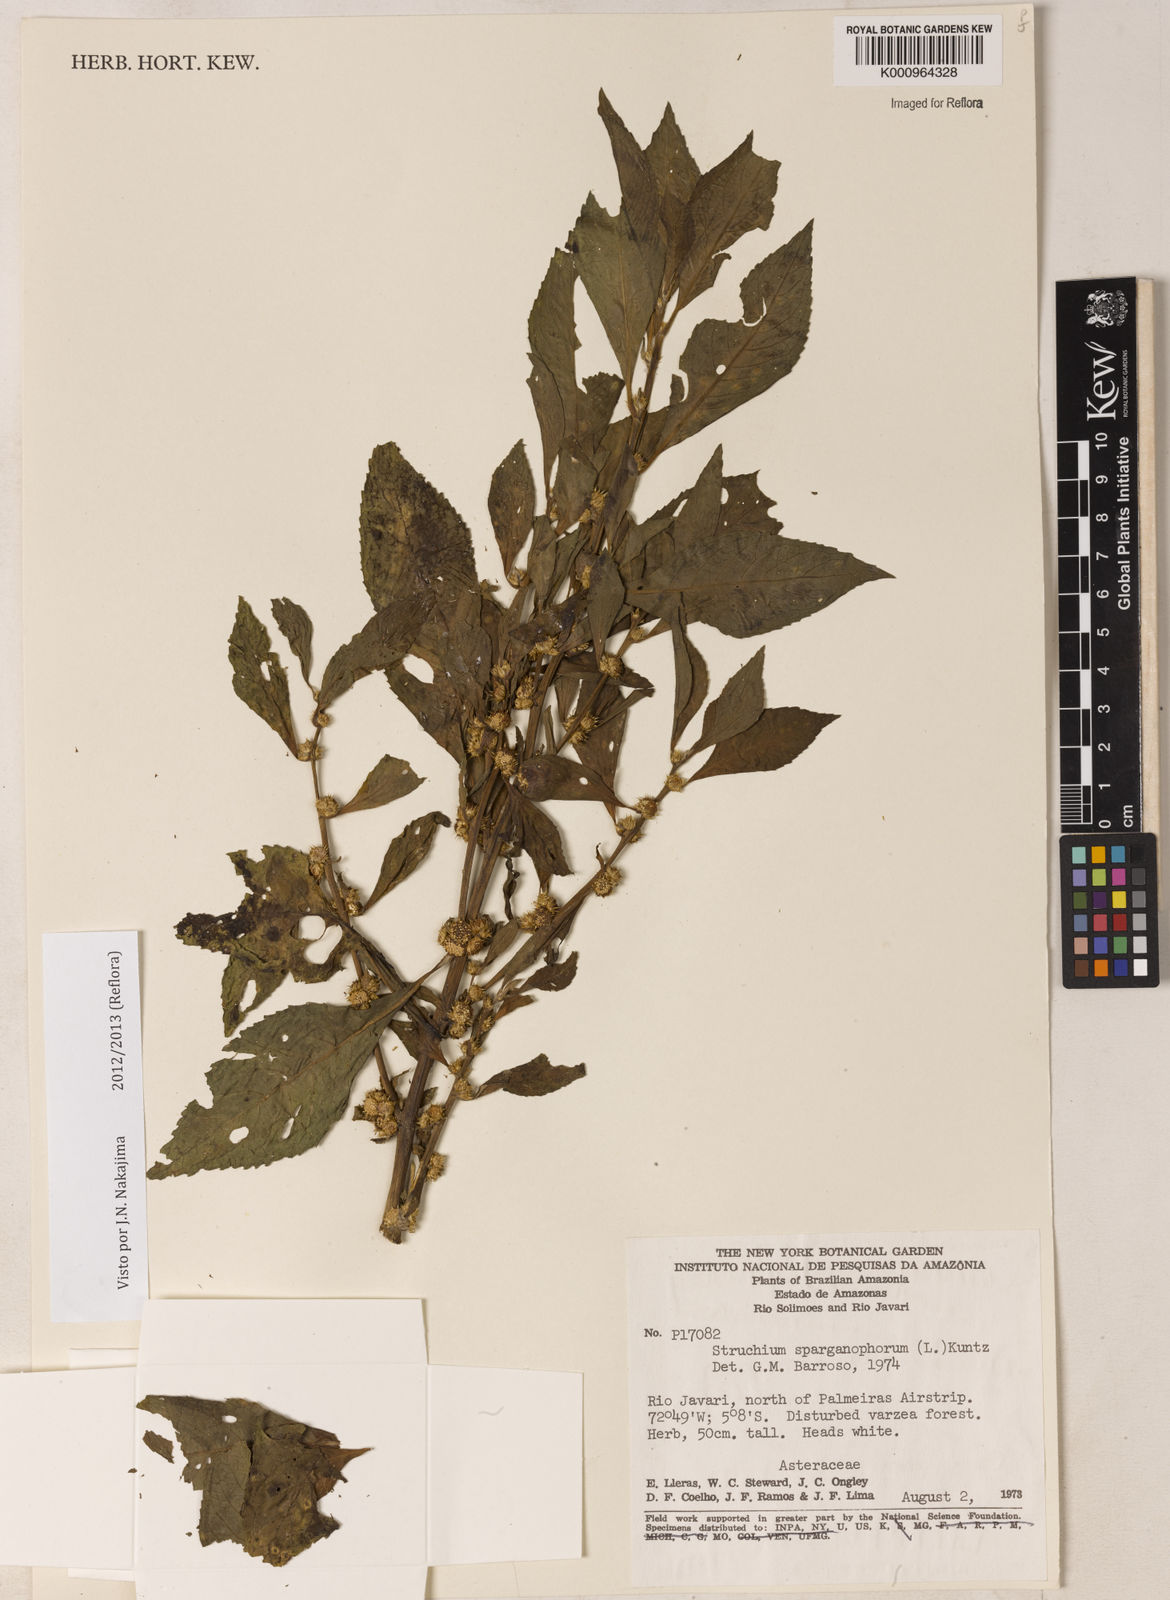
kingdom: Plantae
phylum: Tracheophyta
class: Magnoliopsida
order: Asterales
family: Asteraceae
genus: Struchium
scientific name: Struchium sparganophorum
